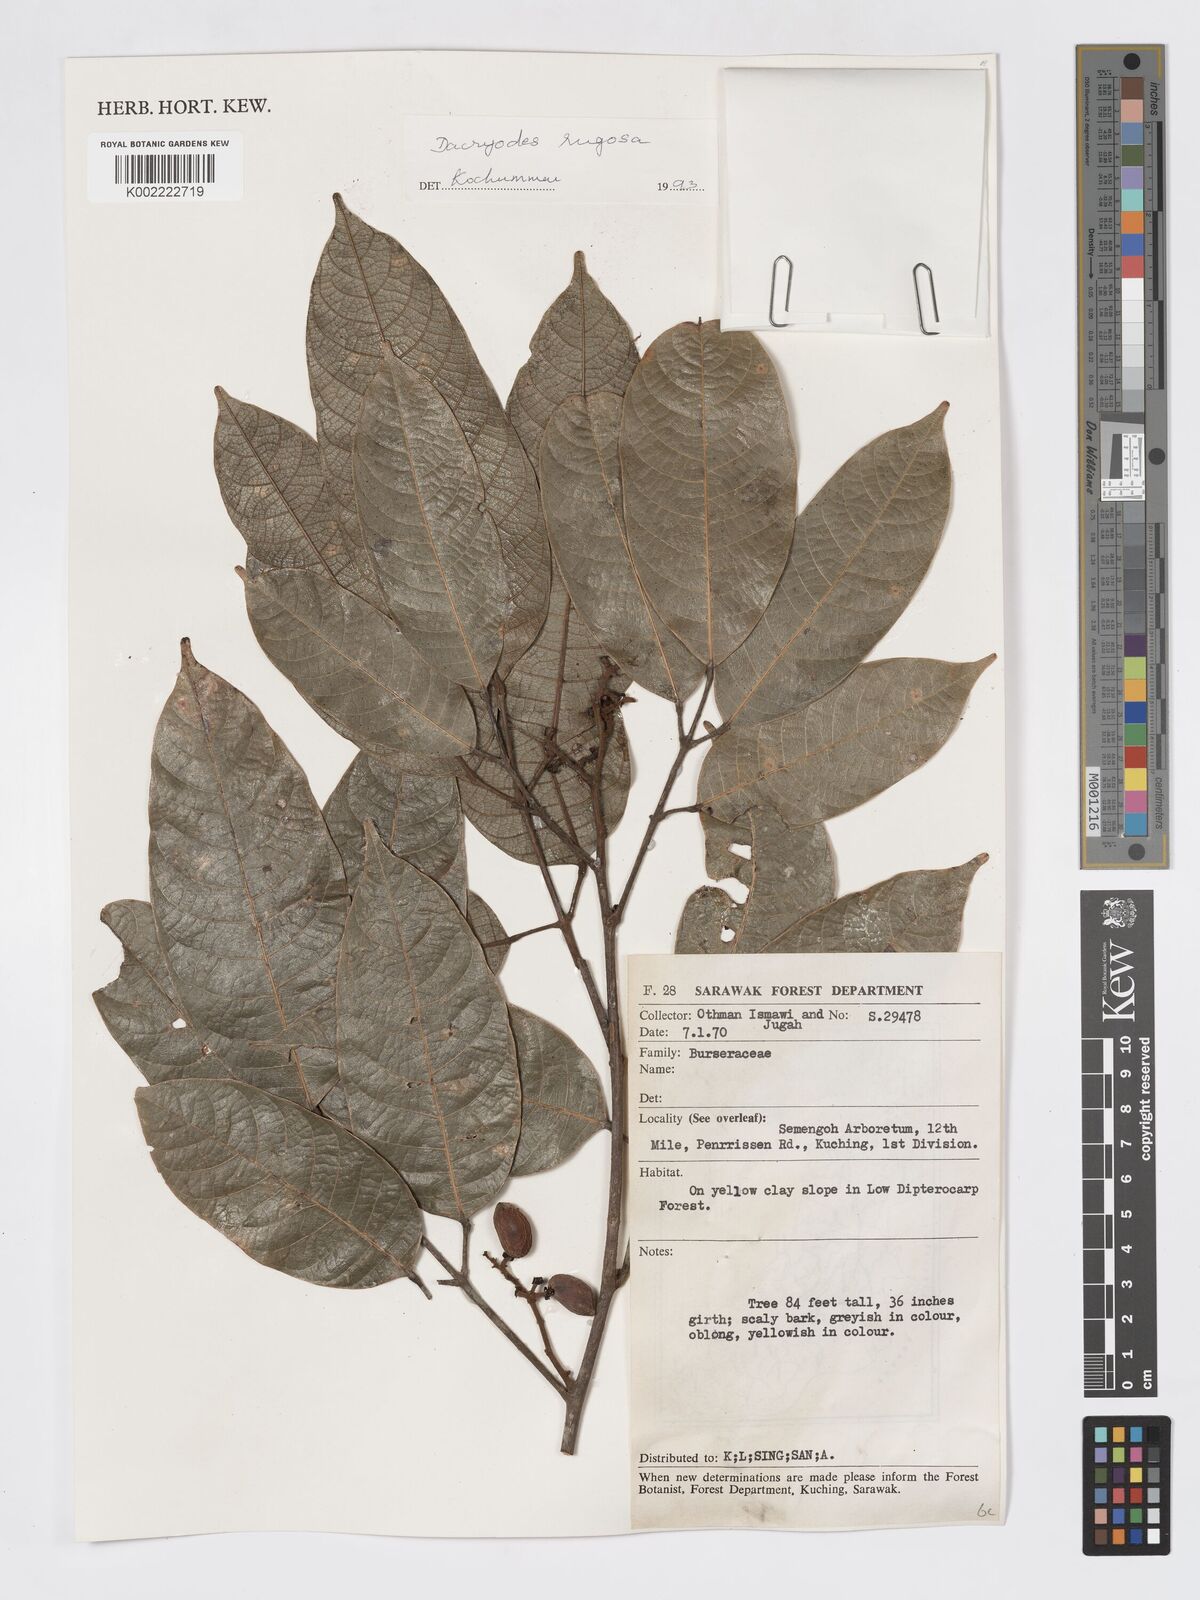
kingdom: Plantae
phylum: Tracheophyta
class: Magnoliopsida
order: Sapindales
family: Burseraceae
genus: Dacryodes
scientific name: Dacryodes rugosa
